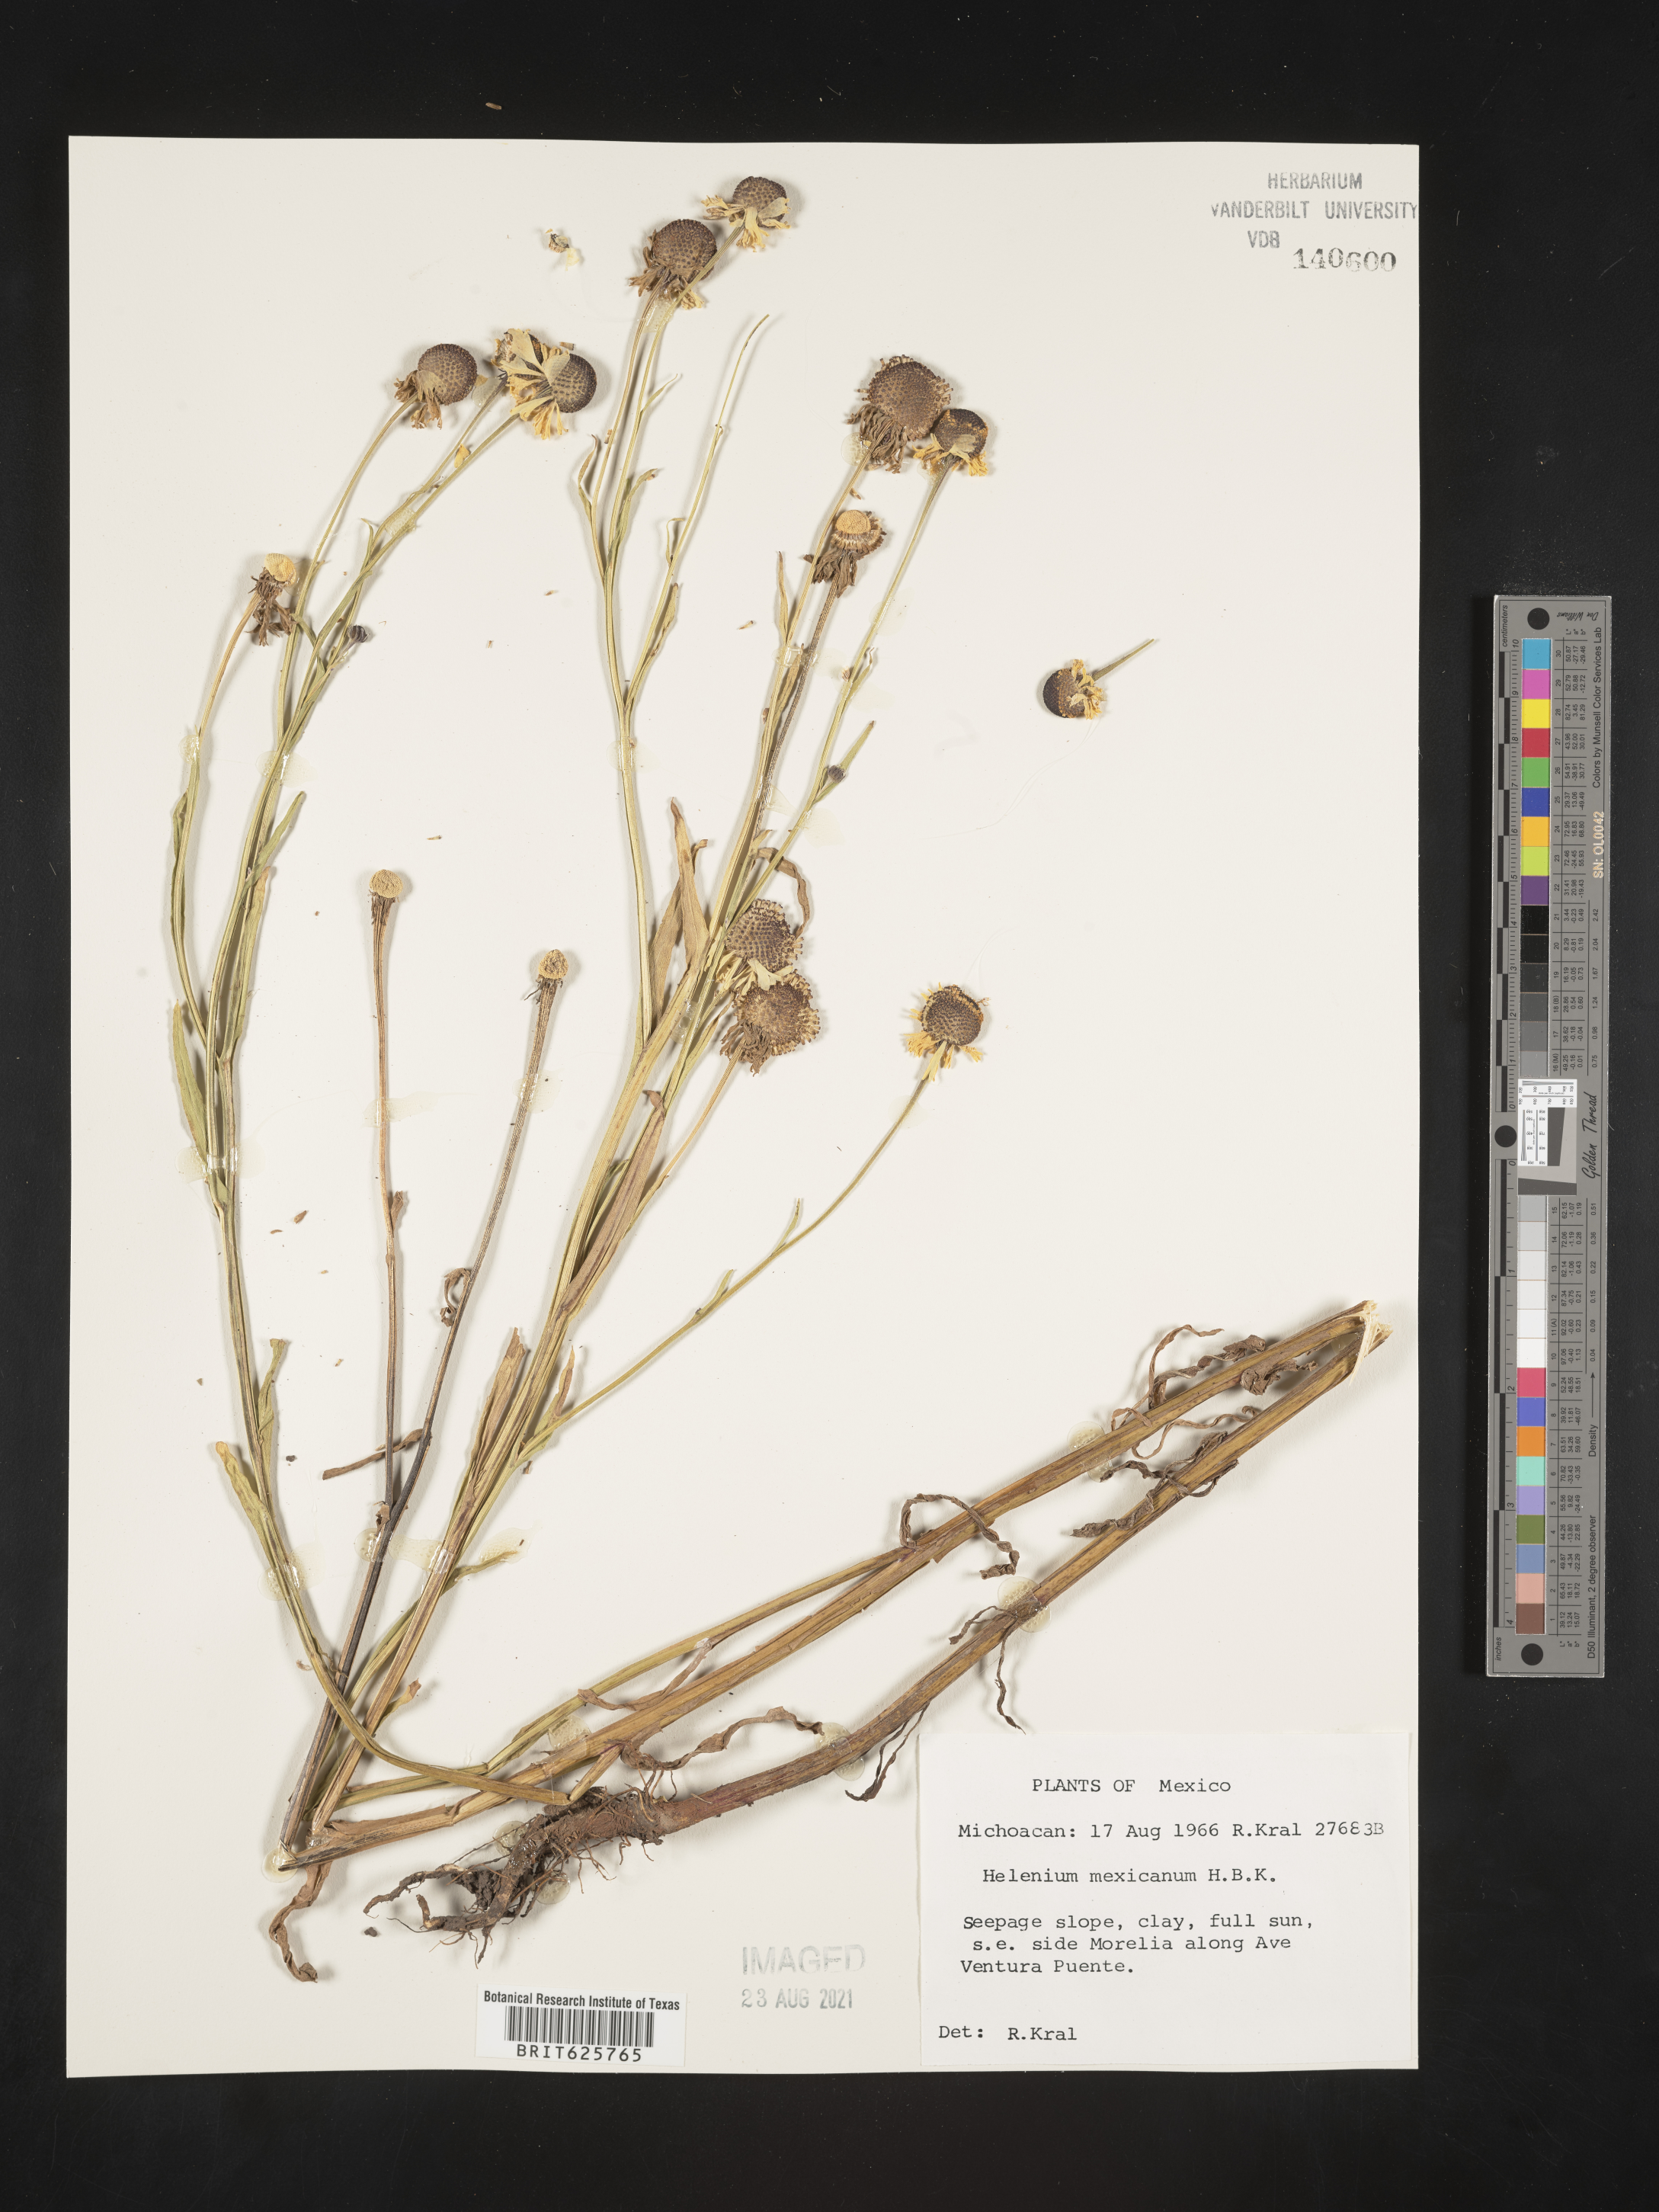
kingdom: Plantae
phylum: Tracheophyta
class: Magnoliopsida
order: Asterales
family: Asteraceae
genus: Helenium
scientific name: Helenium
